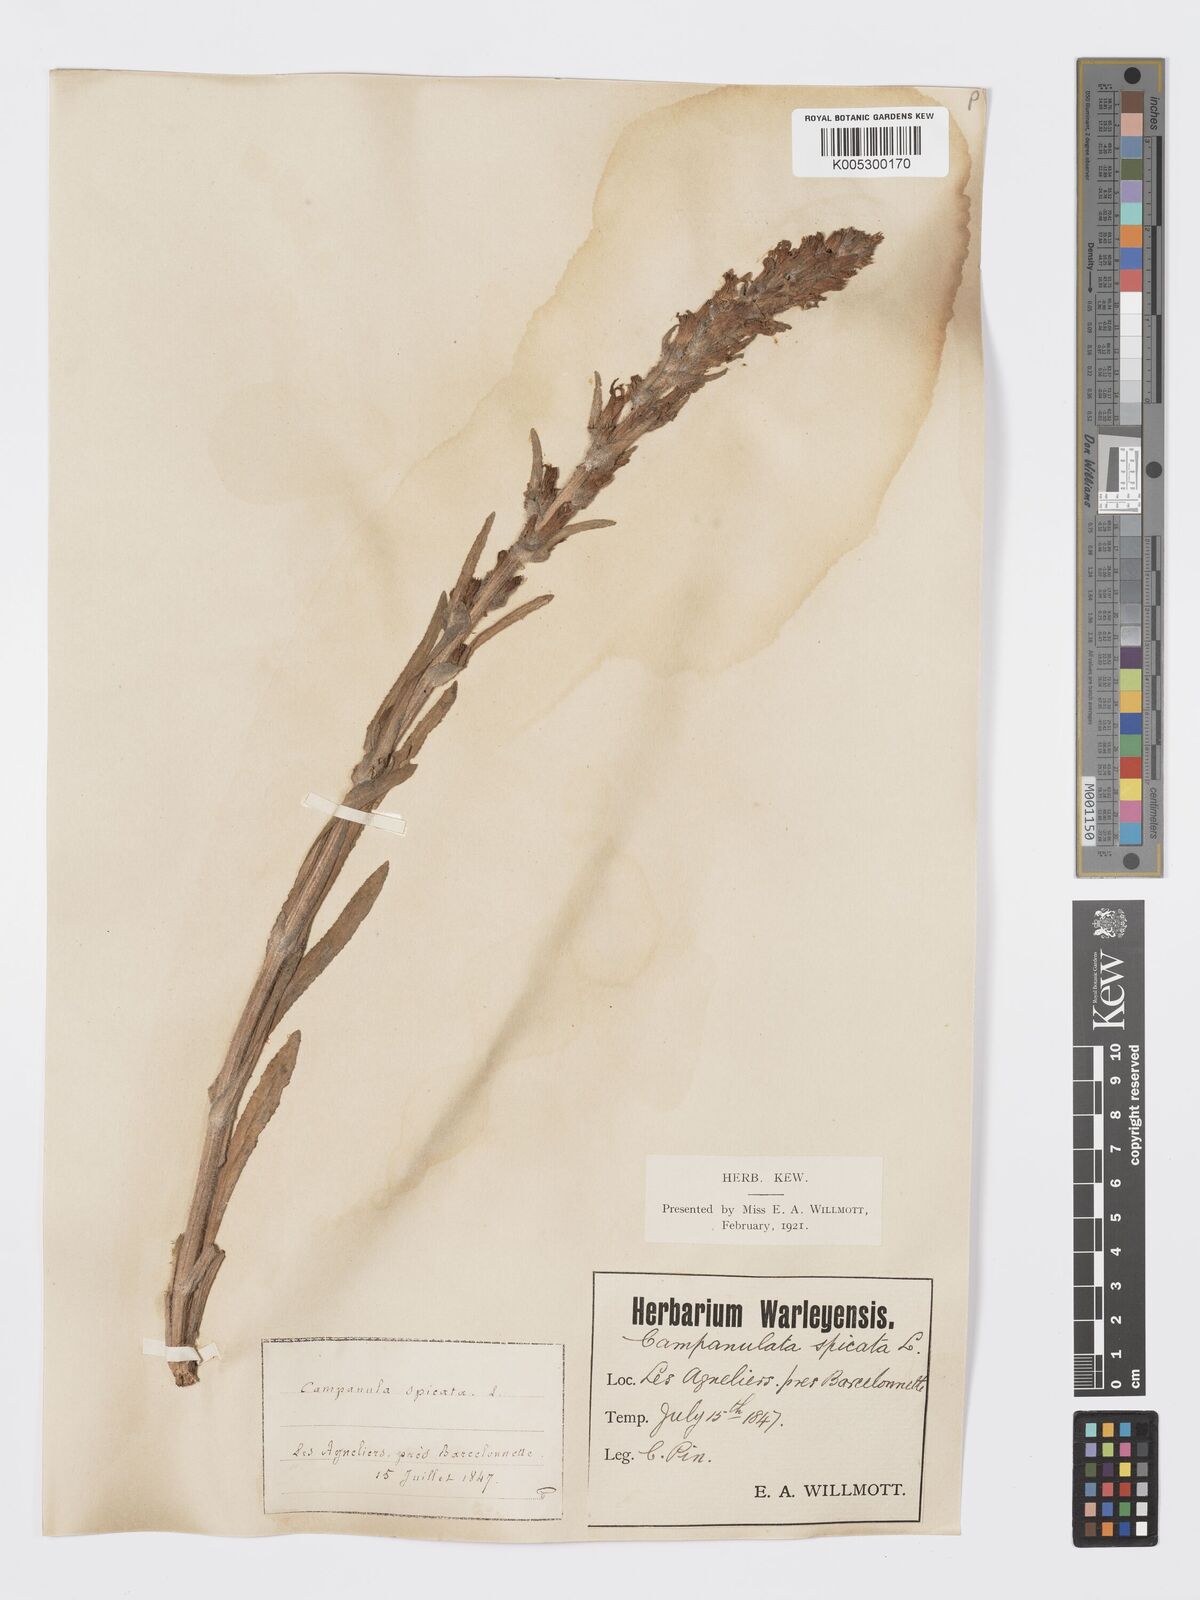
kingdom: Plantae
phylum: Tracheophyta
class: Magnoliopsida
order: Asterales
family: Campanulaceae
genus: Campanula
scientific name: Campanula spicata
